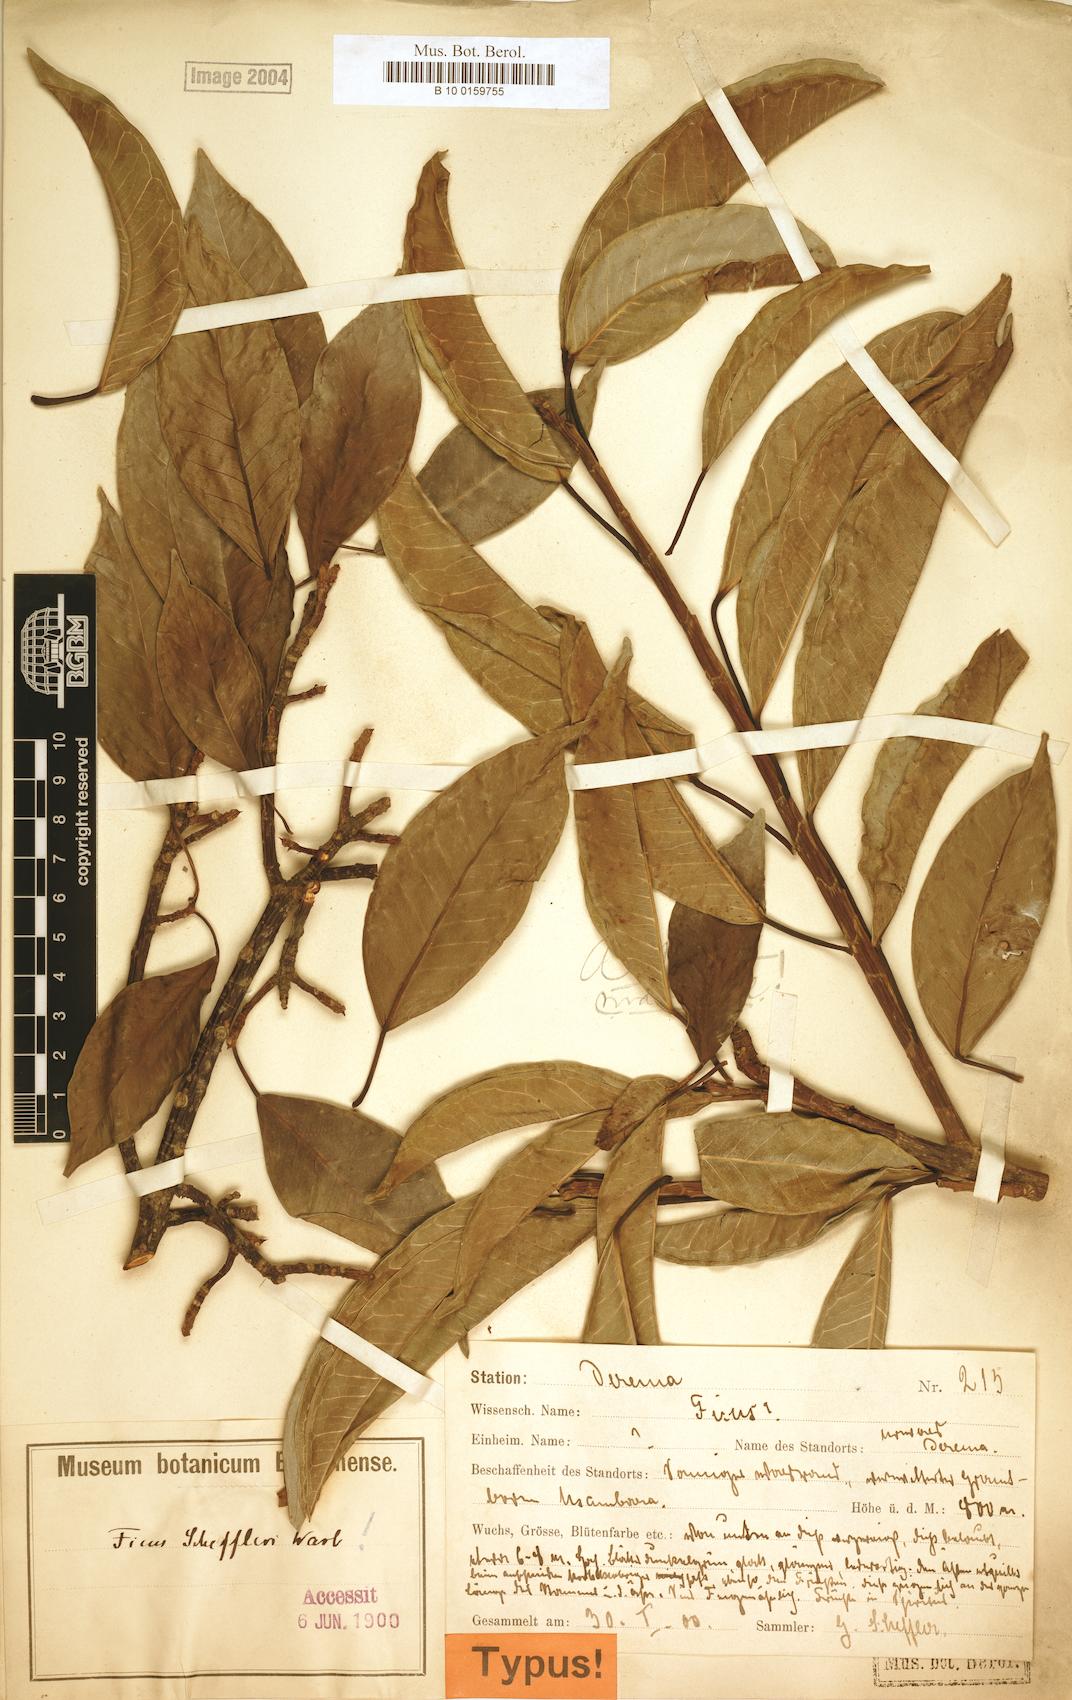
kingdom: Plantae
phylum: Tracheophyta
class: Magnoliopsida
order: Rosales
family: Moraceae
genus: Ficus
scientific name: Ficus ottoniifolia
